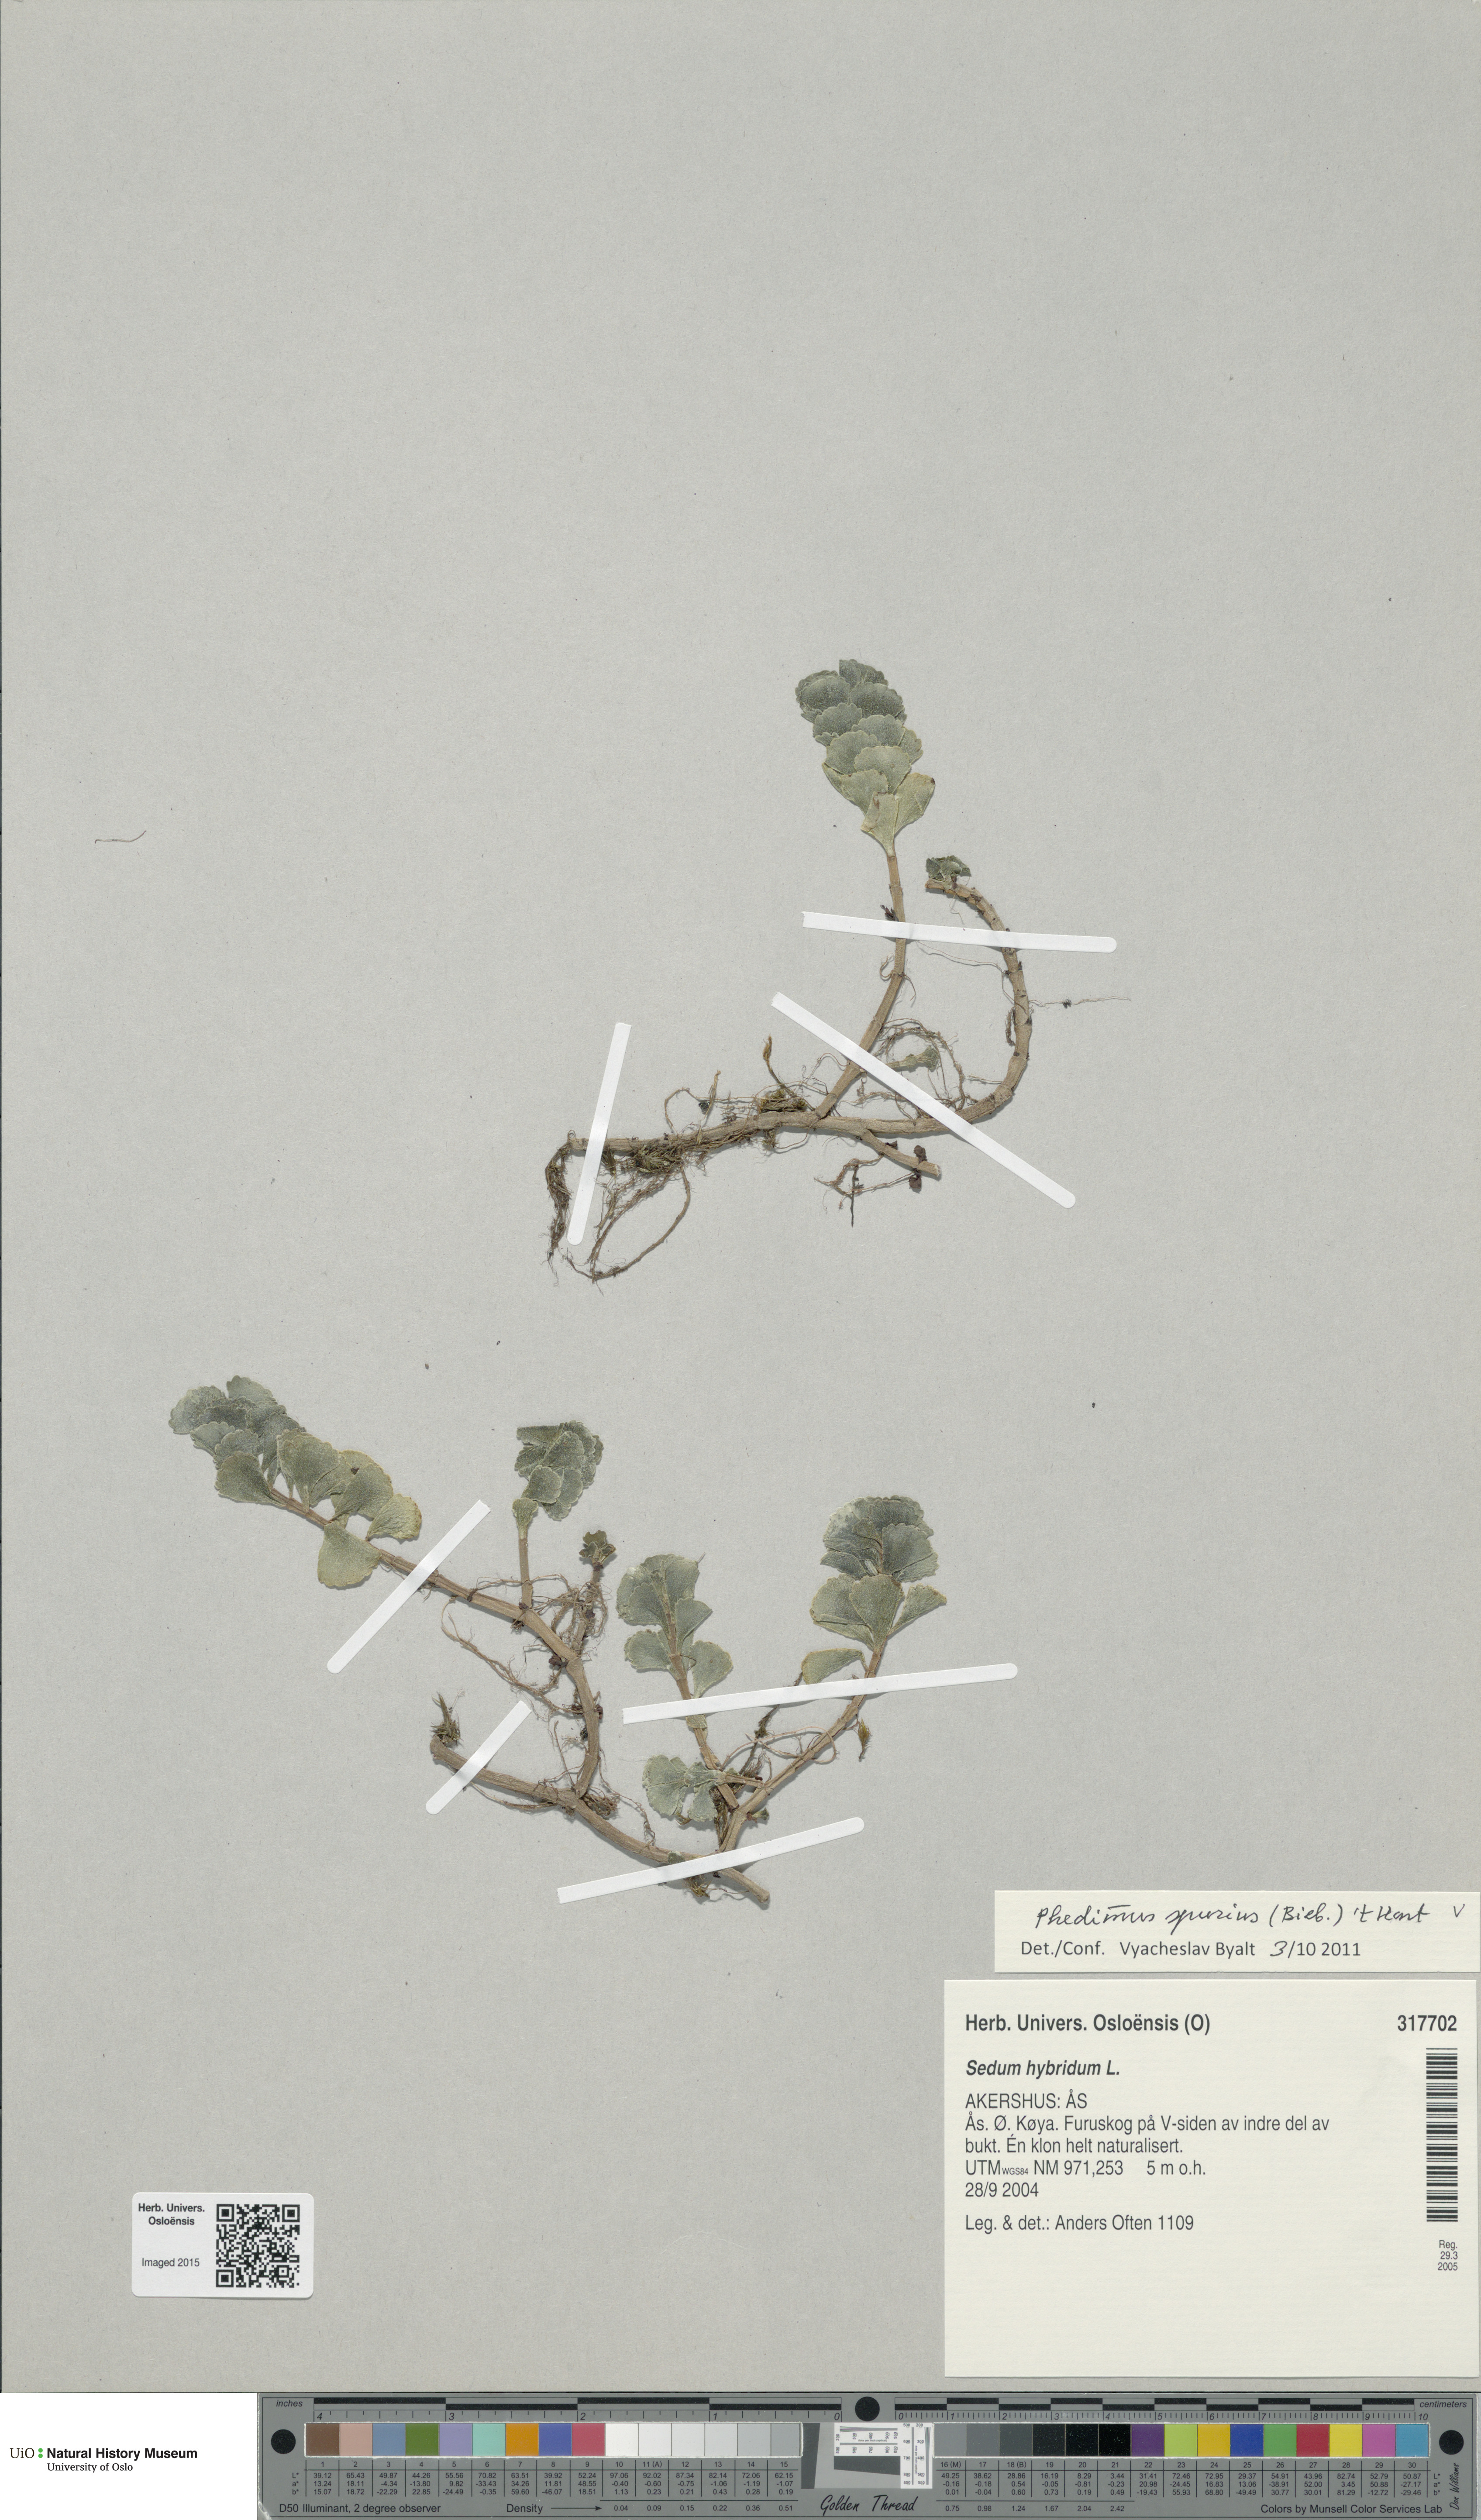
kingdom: Plantae
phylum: Tracheophyta
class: Magnoliopsida
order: Saxifragales
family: Crassulaceae
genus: Phedimus
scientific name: Phedimus spurius
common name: Caucasian stonecrop
